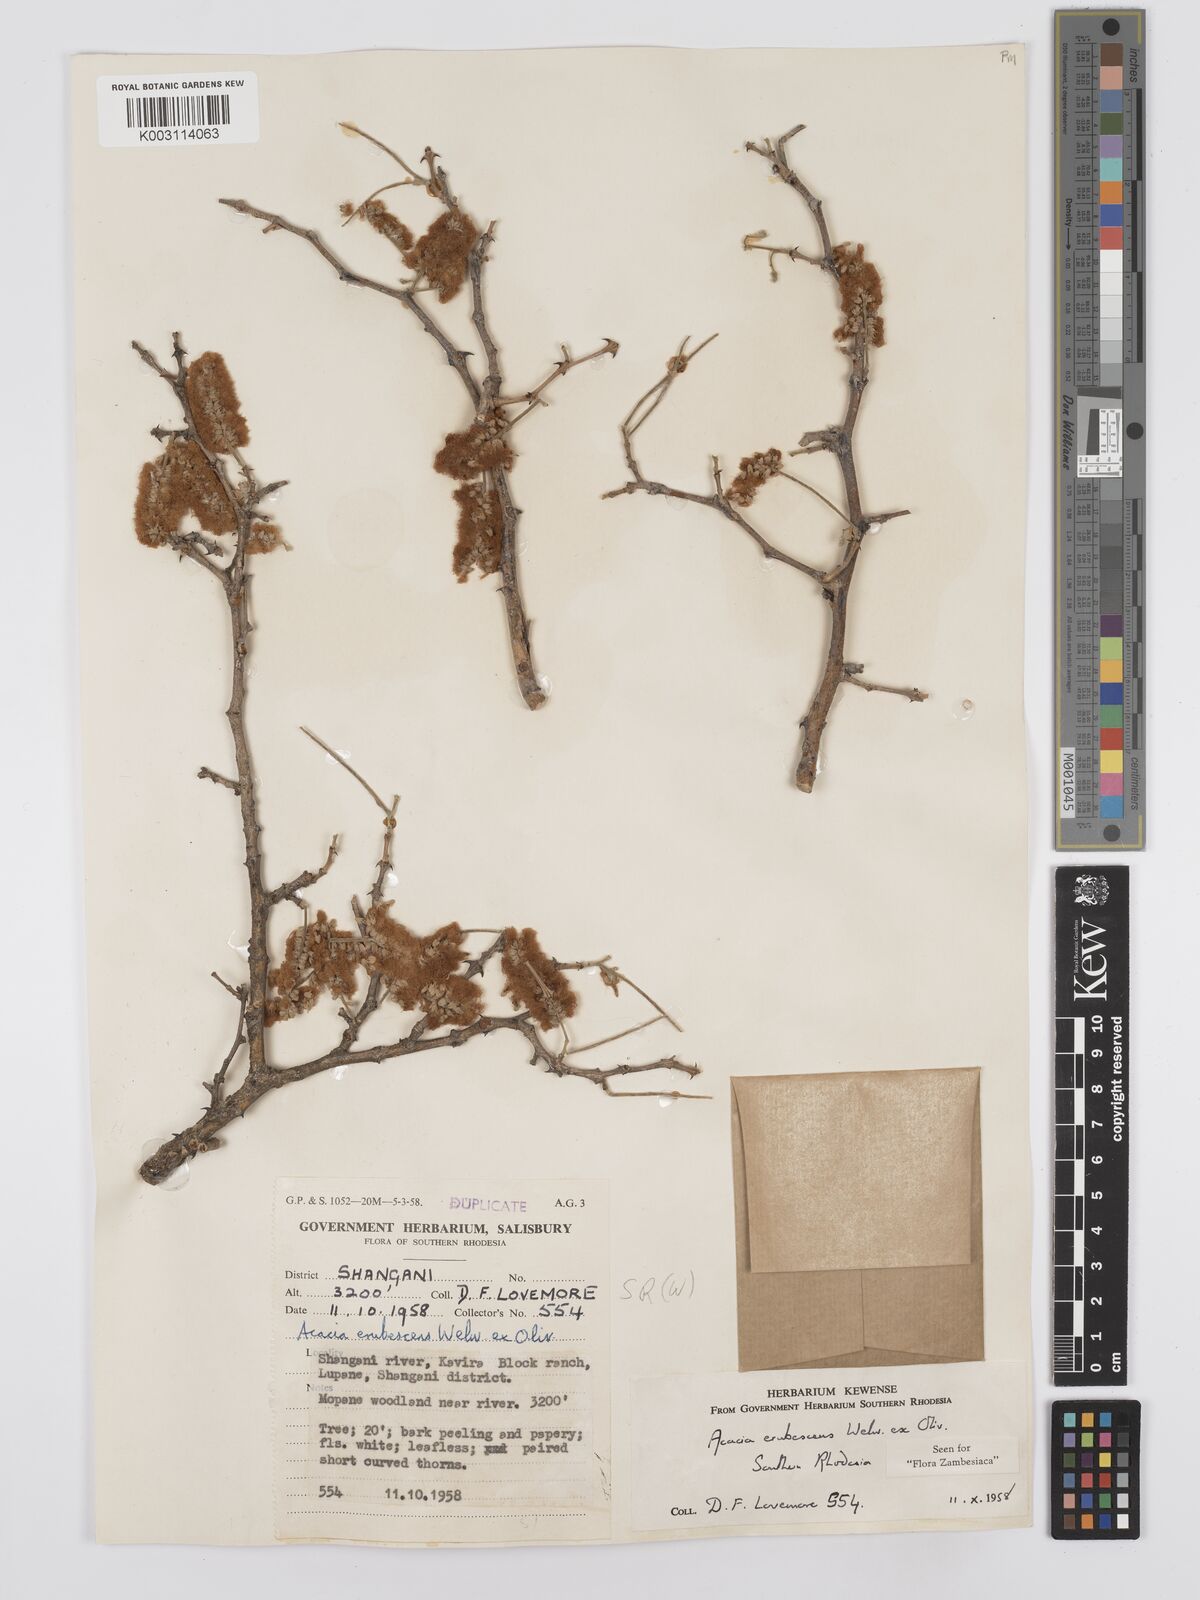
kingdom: Plantae
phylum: Tracheophyta
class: Magnoliopsida
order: Fabales
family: Fabaceae
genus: Senegalia
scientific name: Senegalia erubescens
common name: Bluethorn
